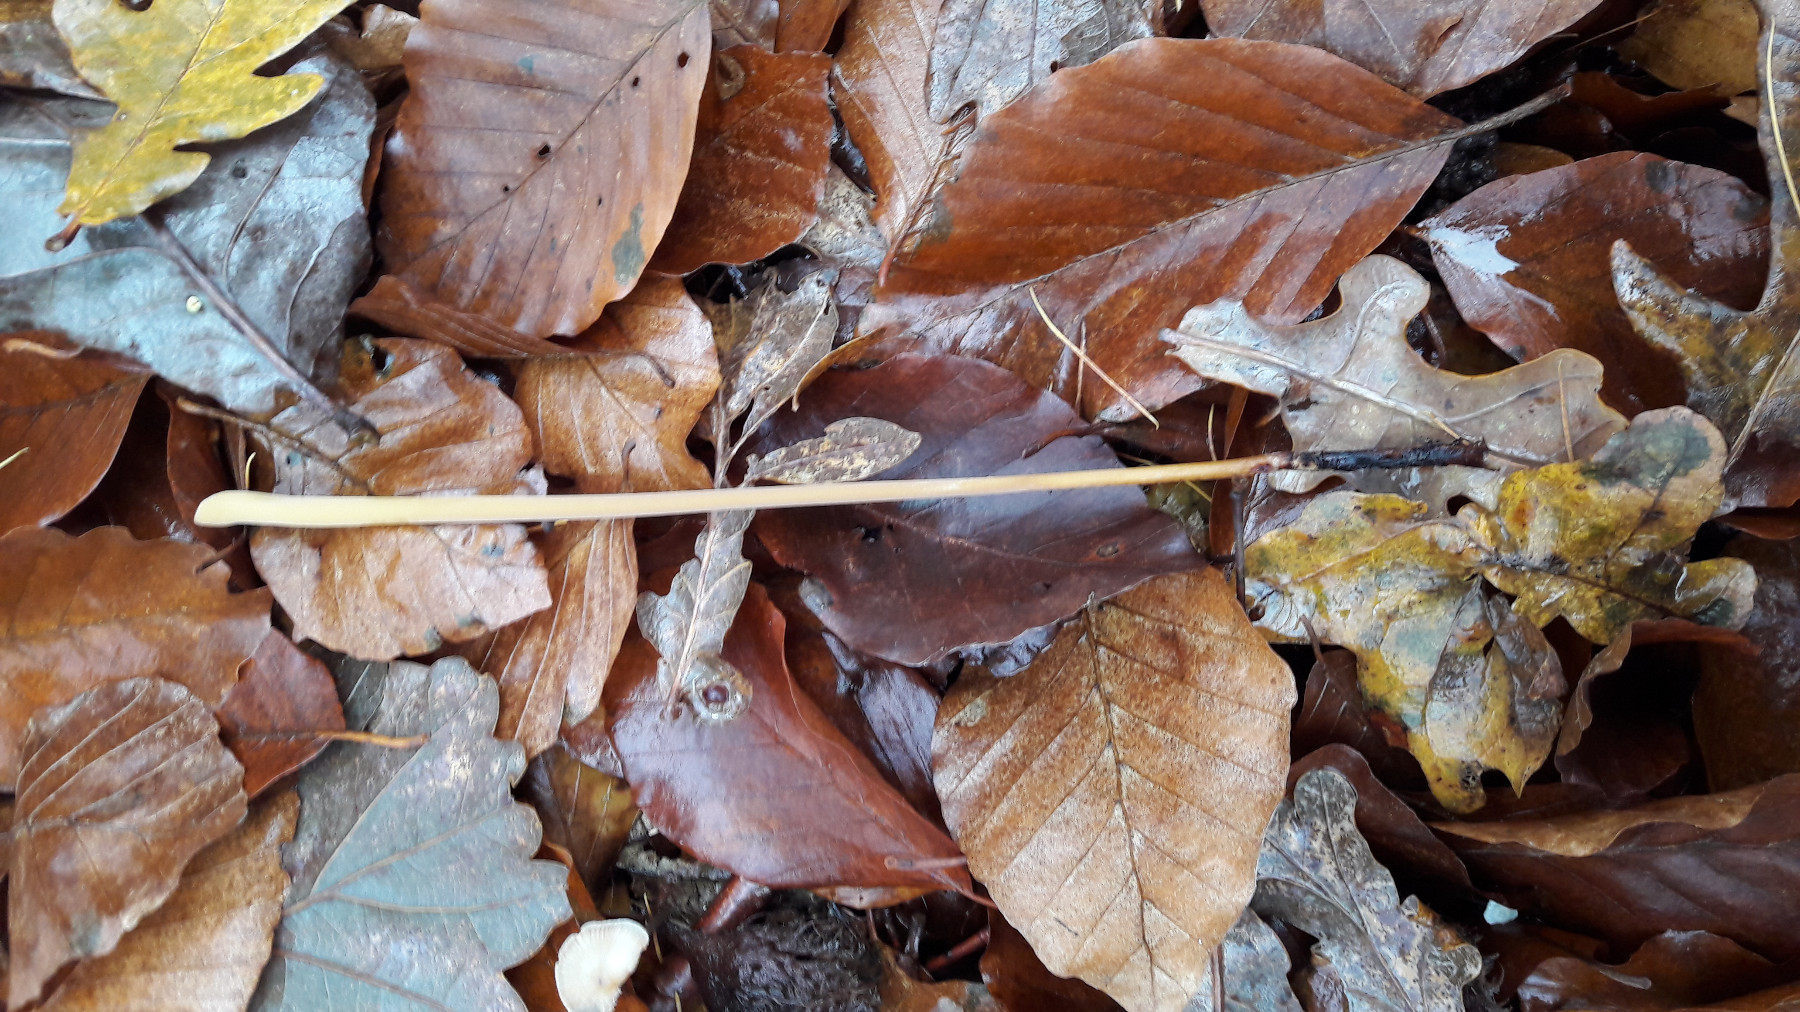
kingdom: Fungi
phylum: Basidiomycota
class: Agaricomycetes
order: Agaricales
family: Typhulaceae
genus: Typhula
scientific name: Typhula fistulosa
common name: pibet rørkølle
